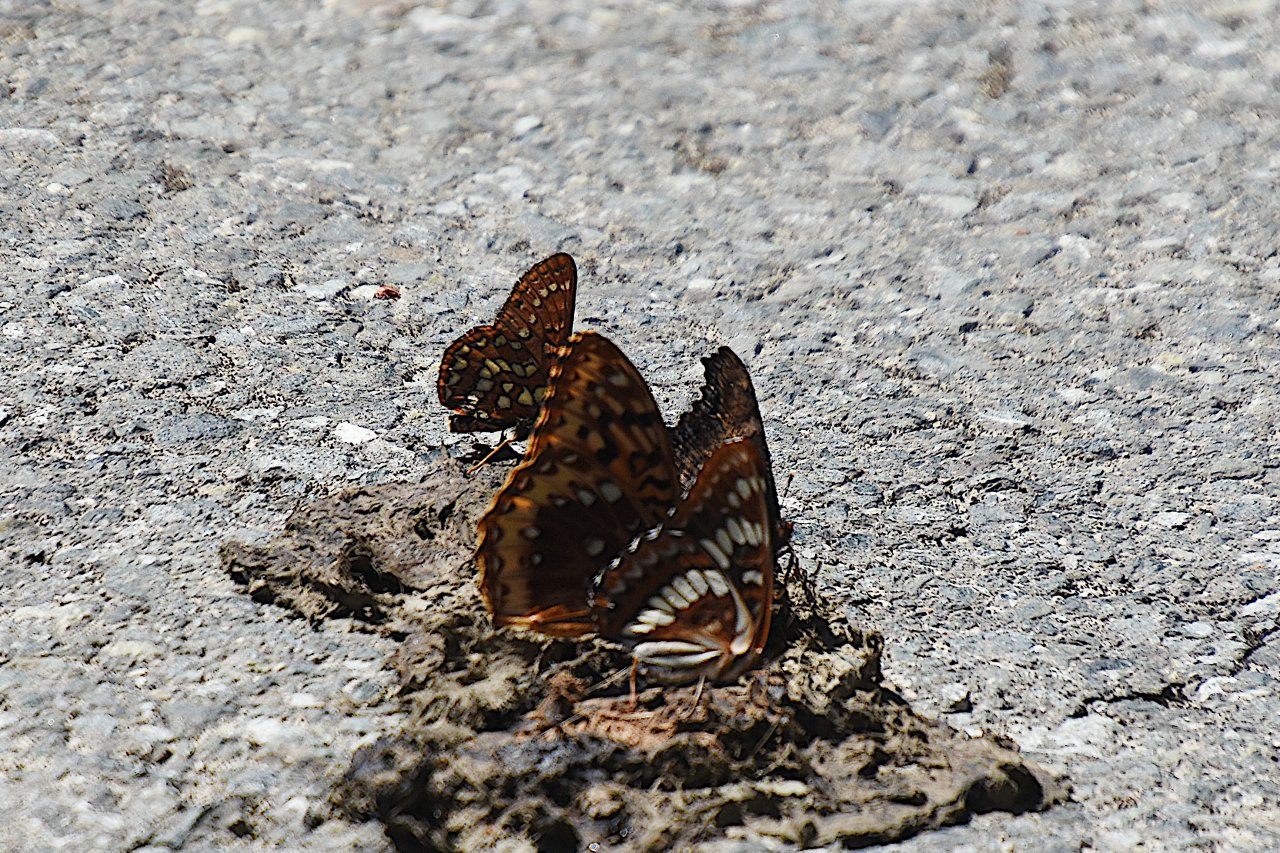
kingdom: Animalia
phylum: Arthropoda
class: Insecta
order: Lepidoptera
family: Nymphalidae
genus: Occidryas
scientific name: Occidryas colon
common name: Snowberry Checkerspot
